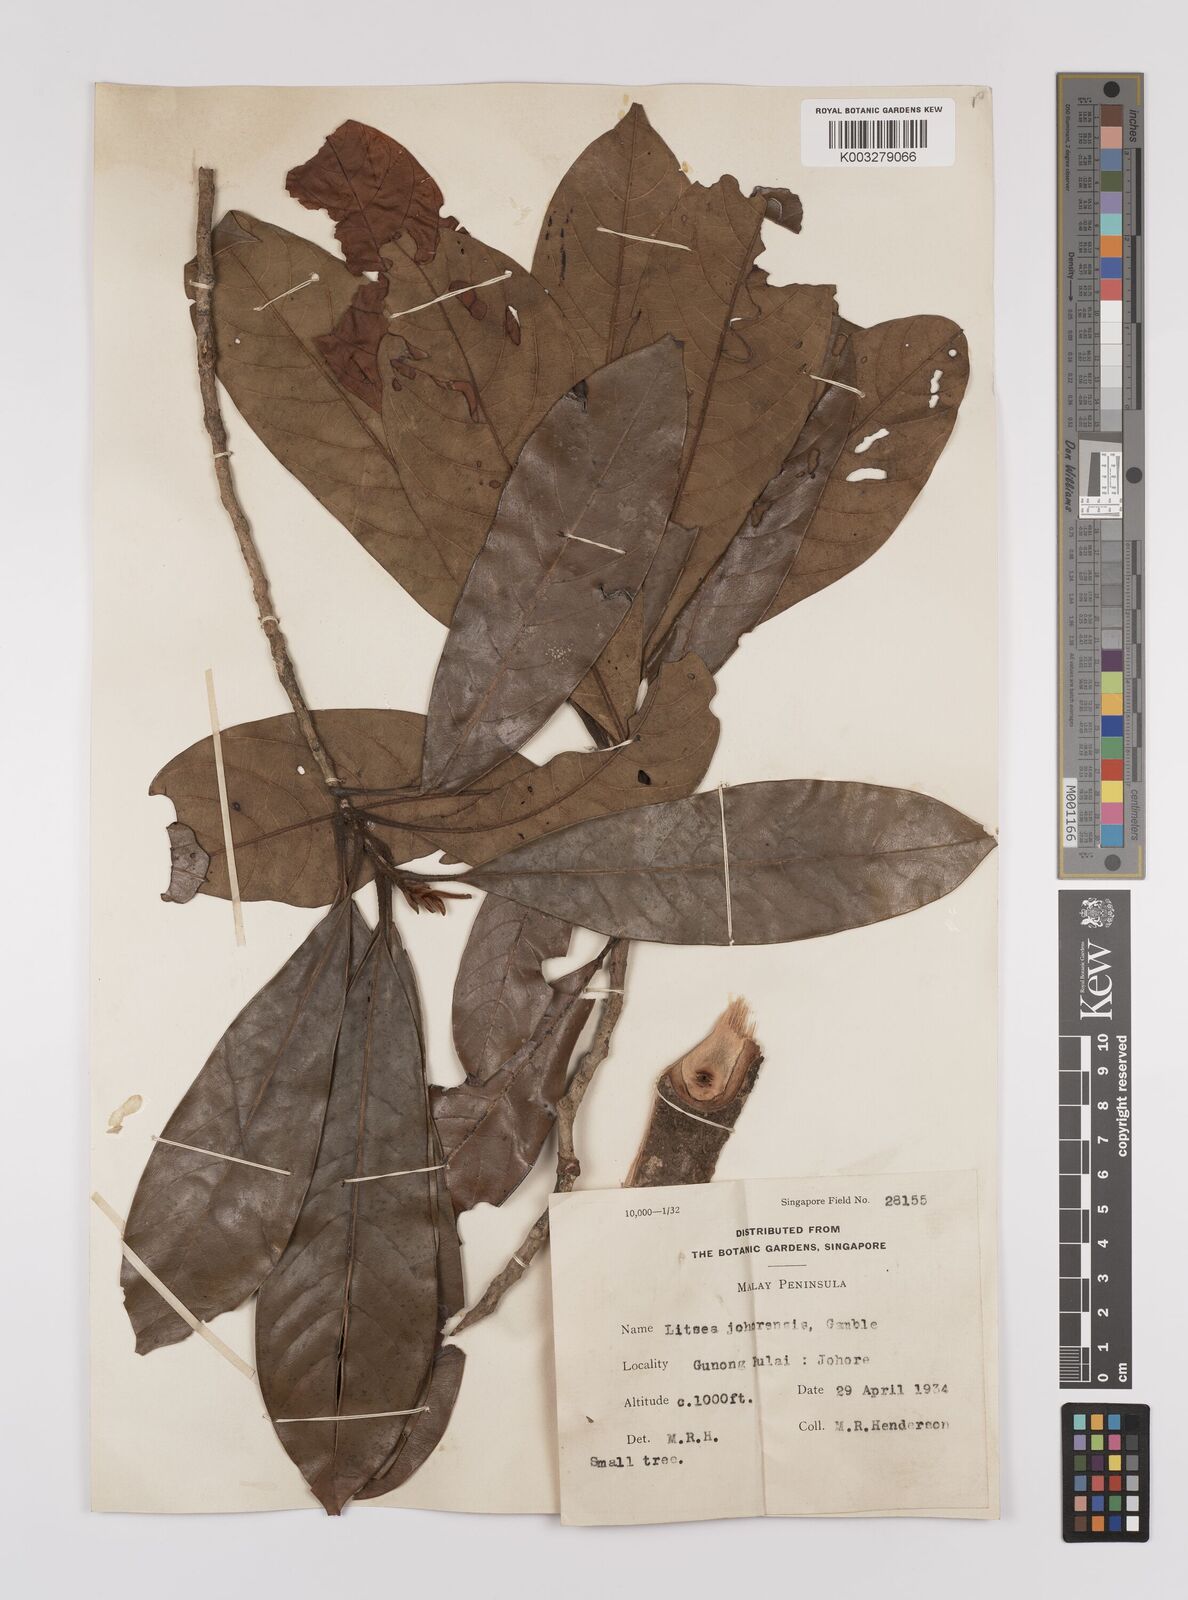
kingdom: Plantae
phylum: Tracheophyta
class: Magnoliopsida
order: Laurales
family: Lauraceae
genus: Litsea
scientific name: Litsea johorensis
